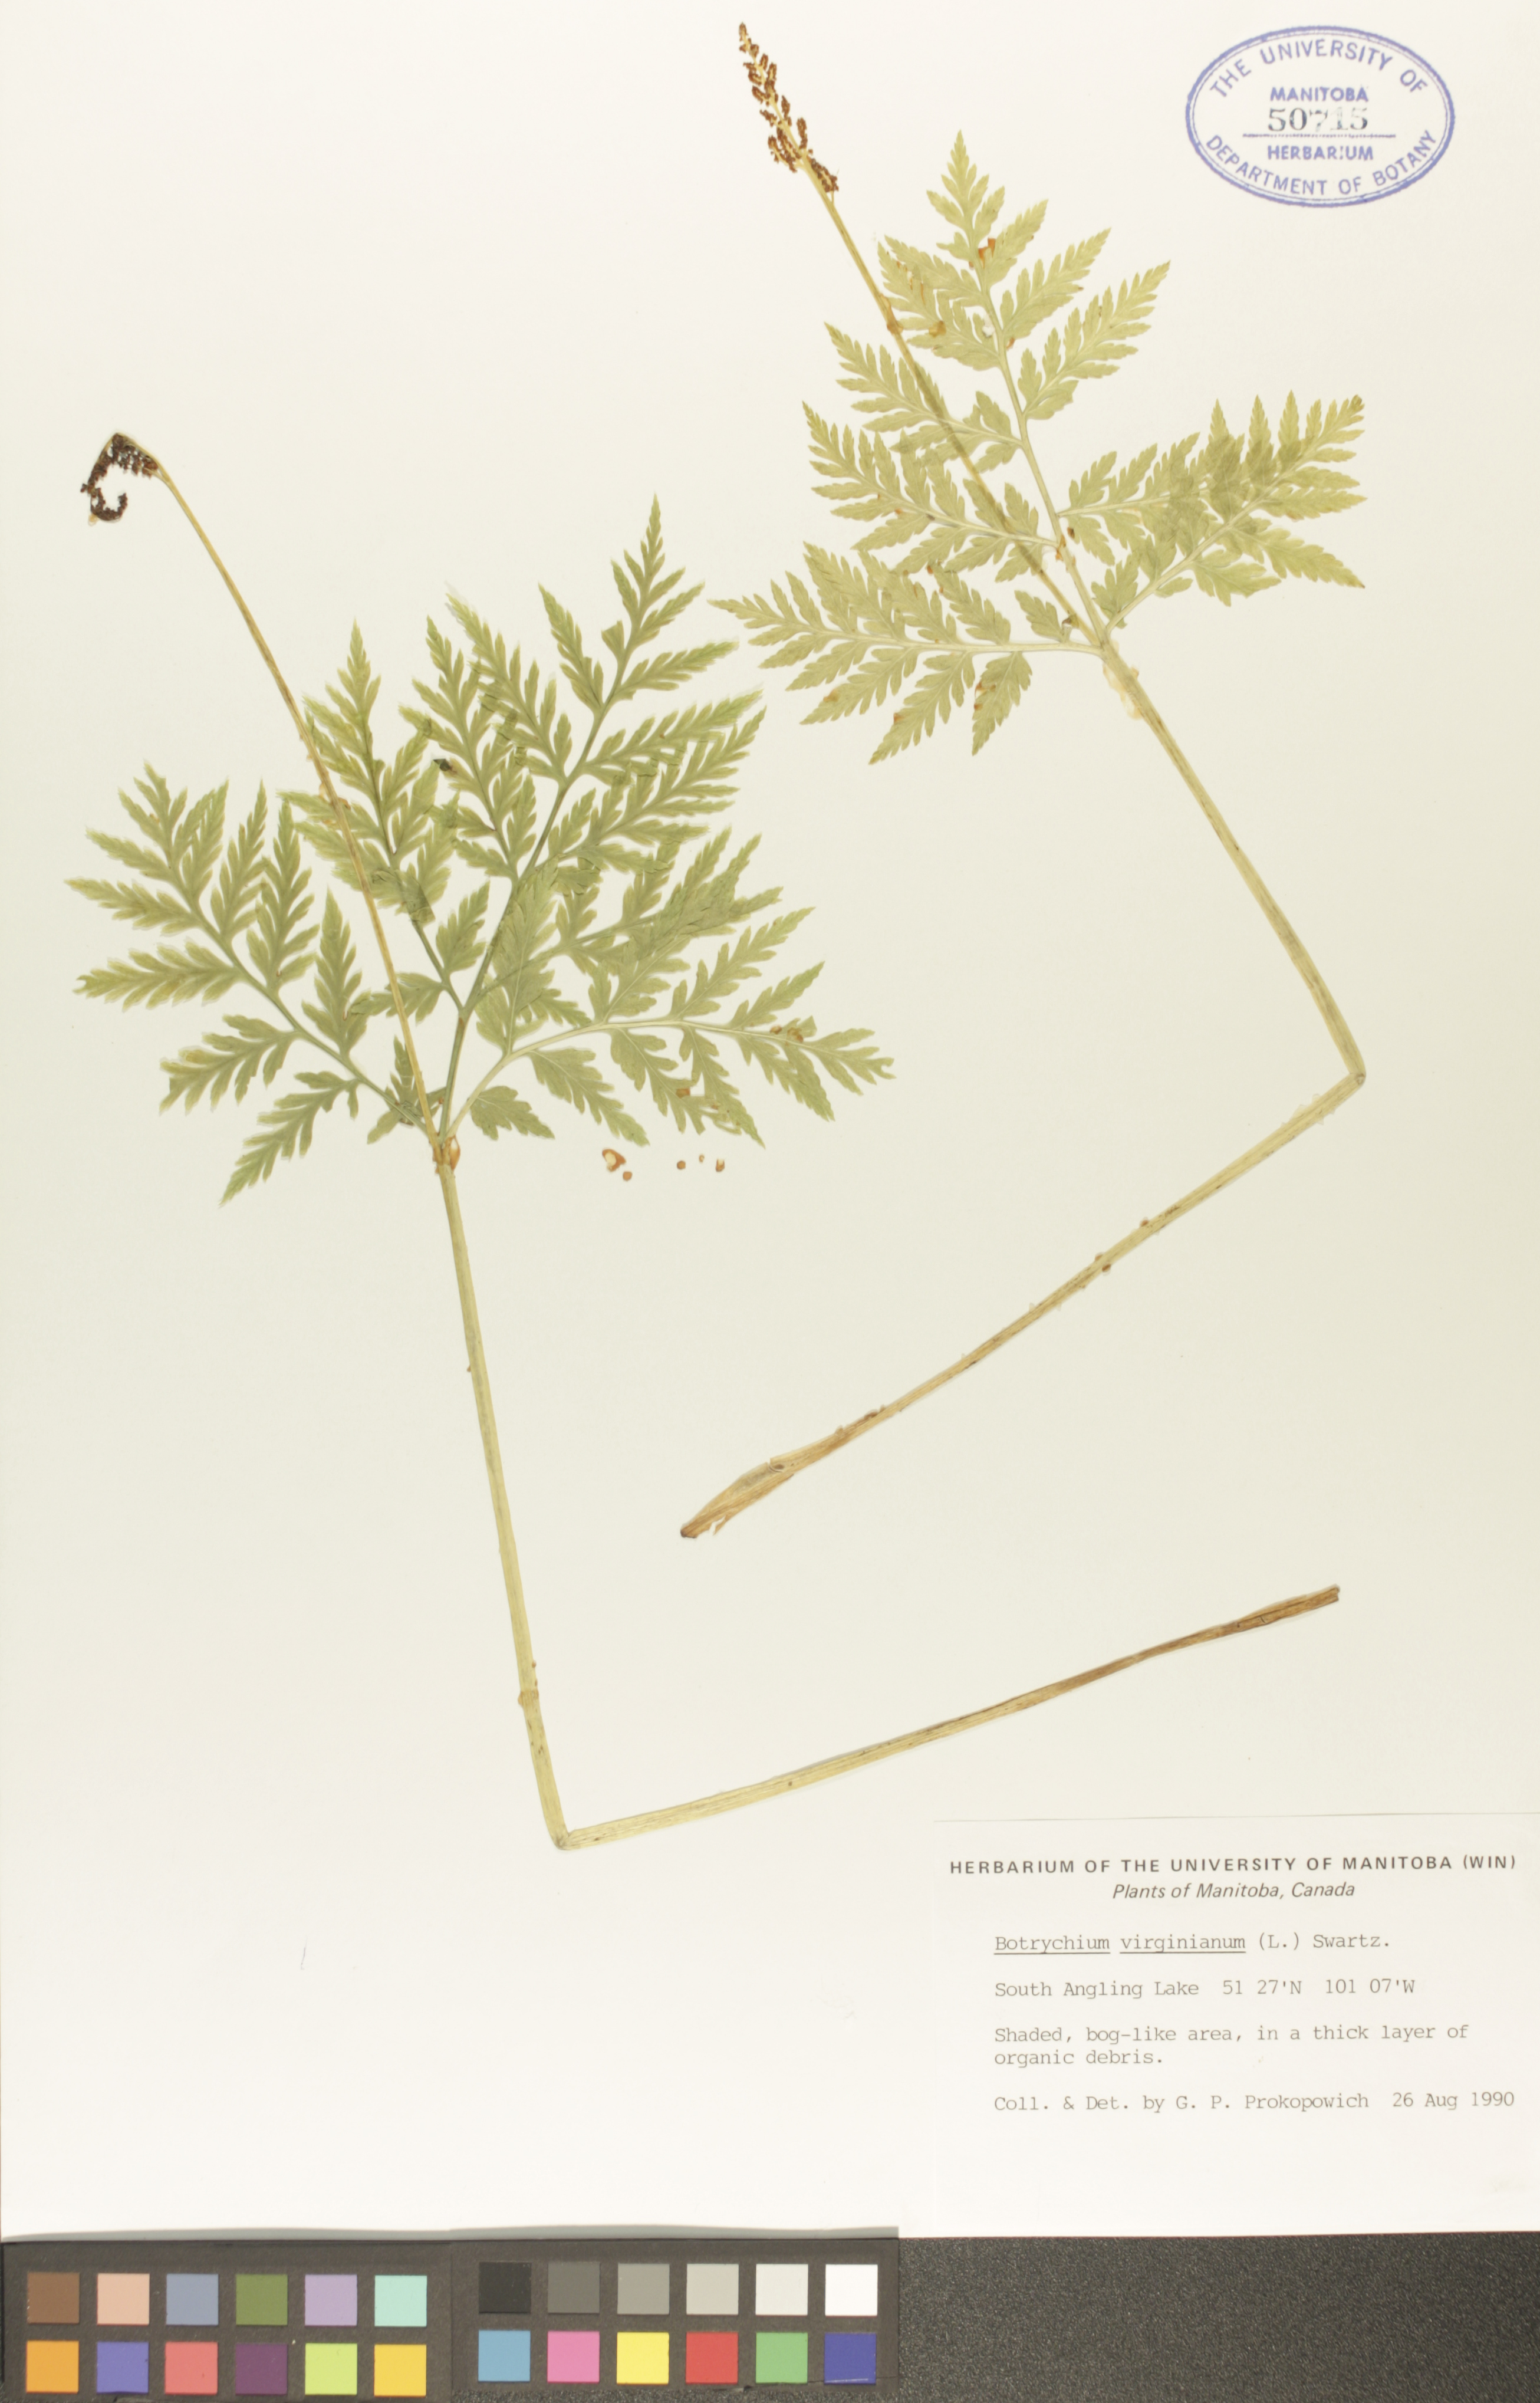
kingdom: Plantae
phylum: Tracheophyta
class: Polypodiopsida
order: Ophioglossales
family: Ophioglossaceae
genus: Botrypus
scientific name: Botrypus virginianus
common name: Common grapefern
